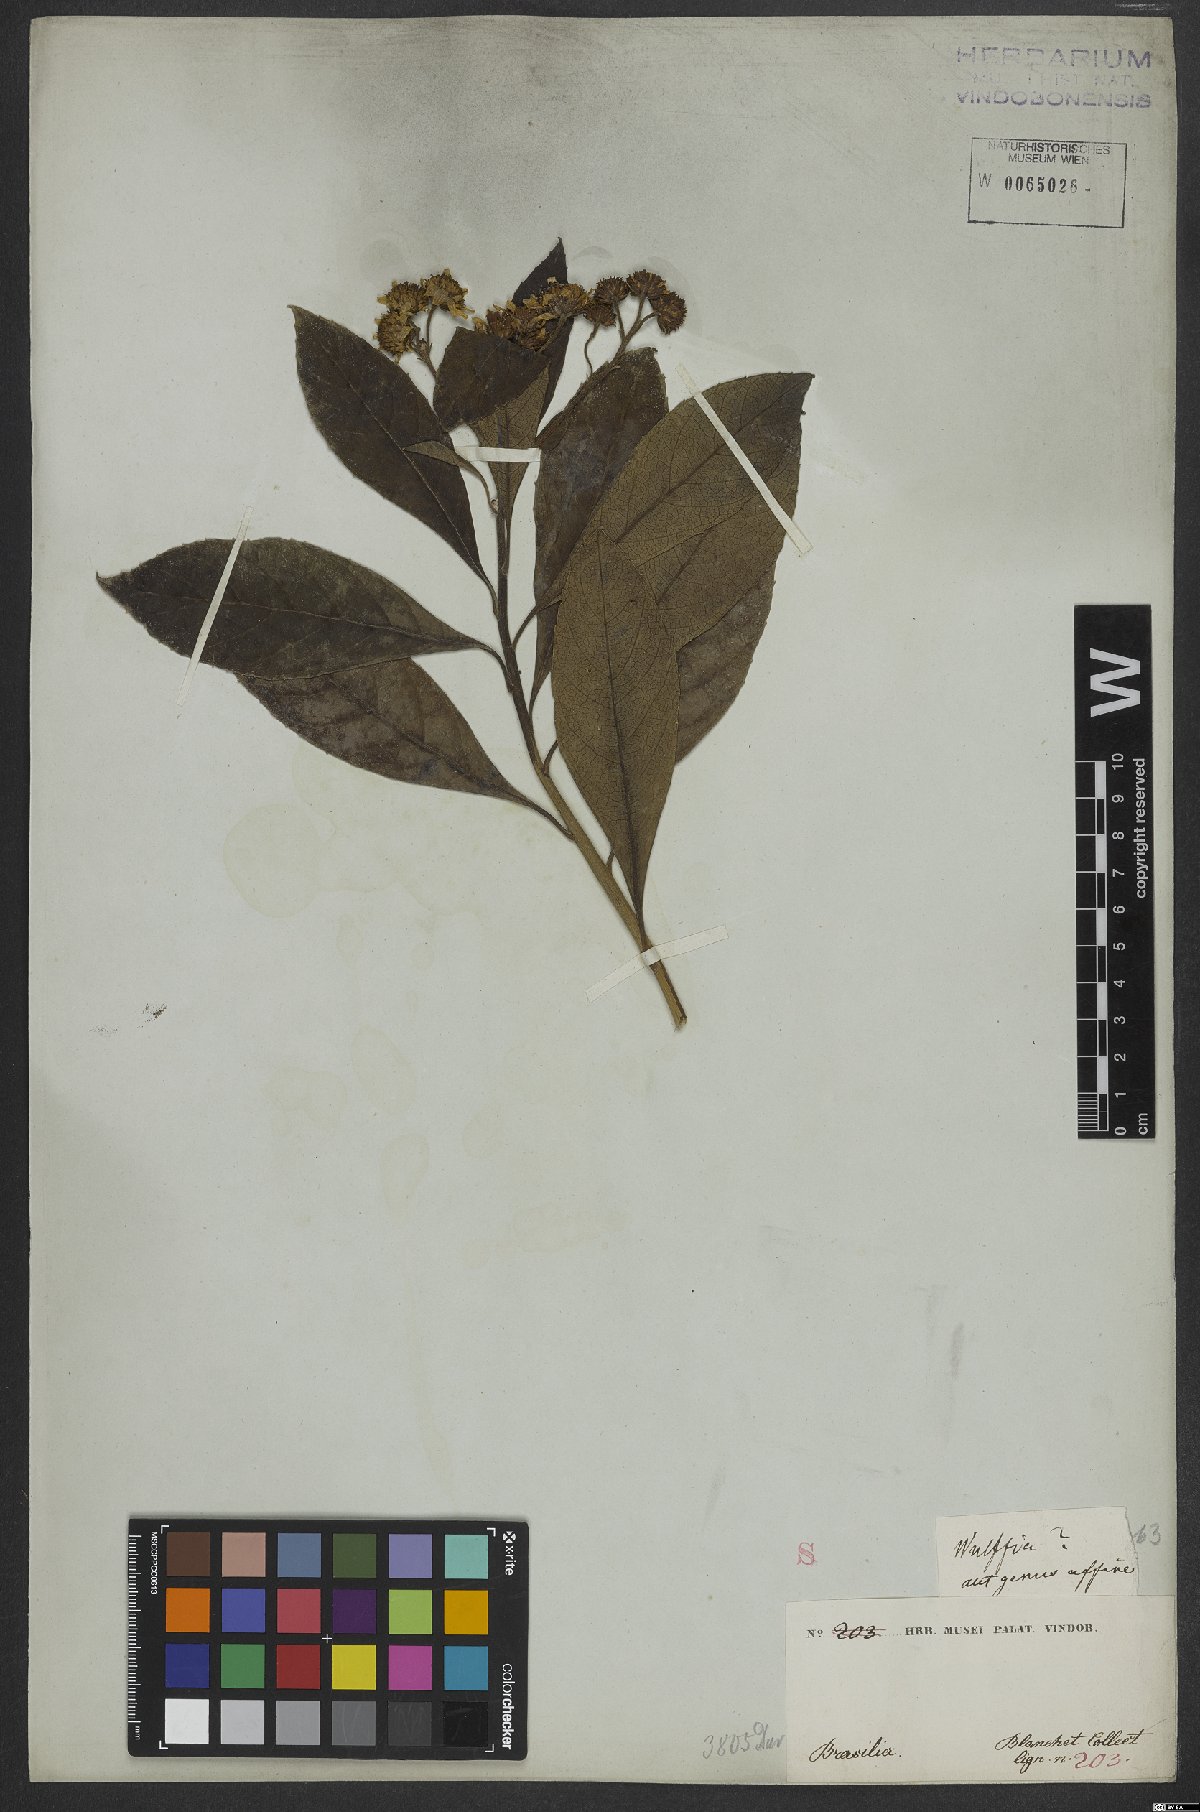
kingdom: Plantae
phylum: Tracheophyta
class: Magnoliopsida
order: Asterales
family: Asteraceae
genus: Viguiera
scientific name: Viguiera
